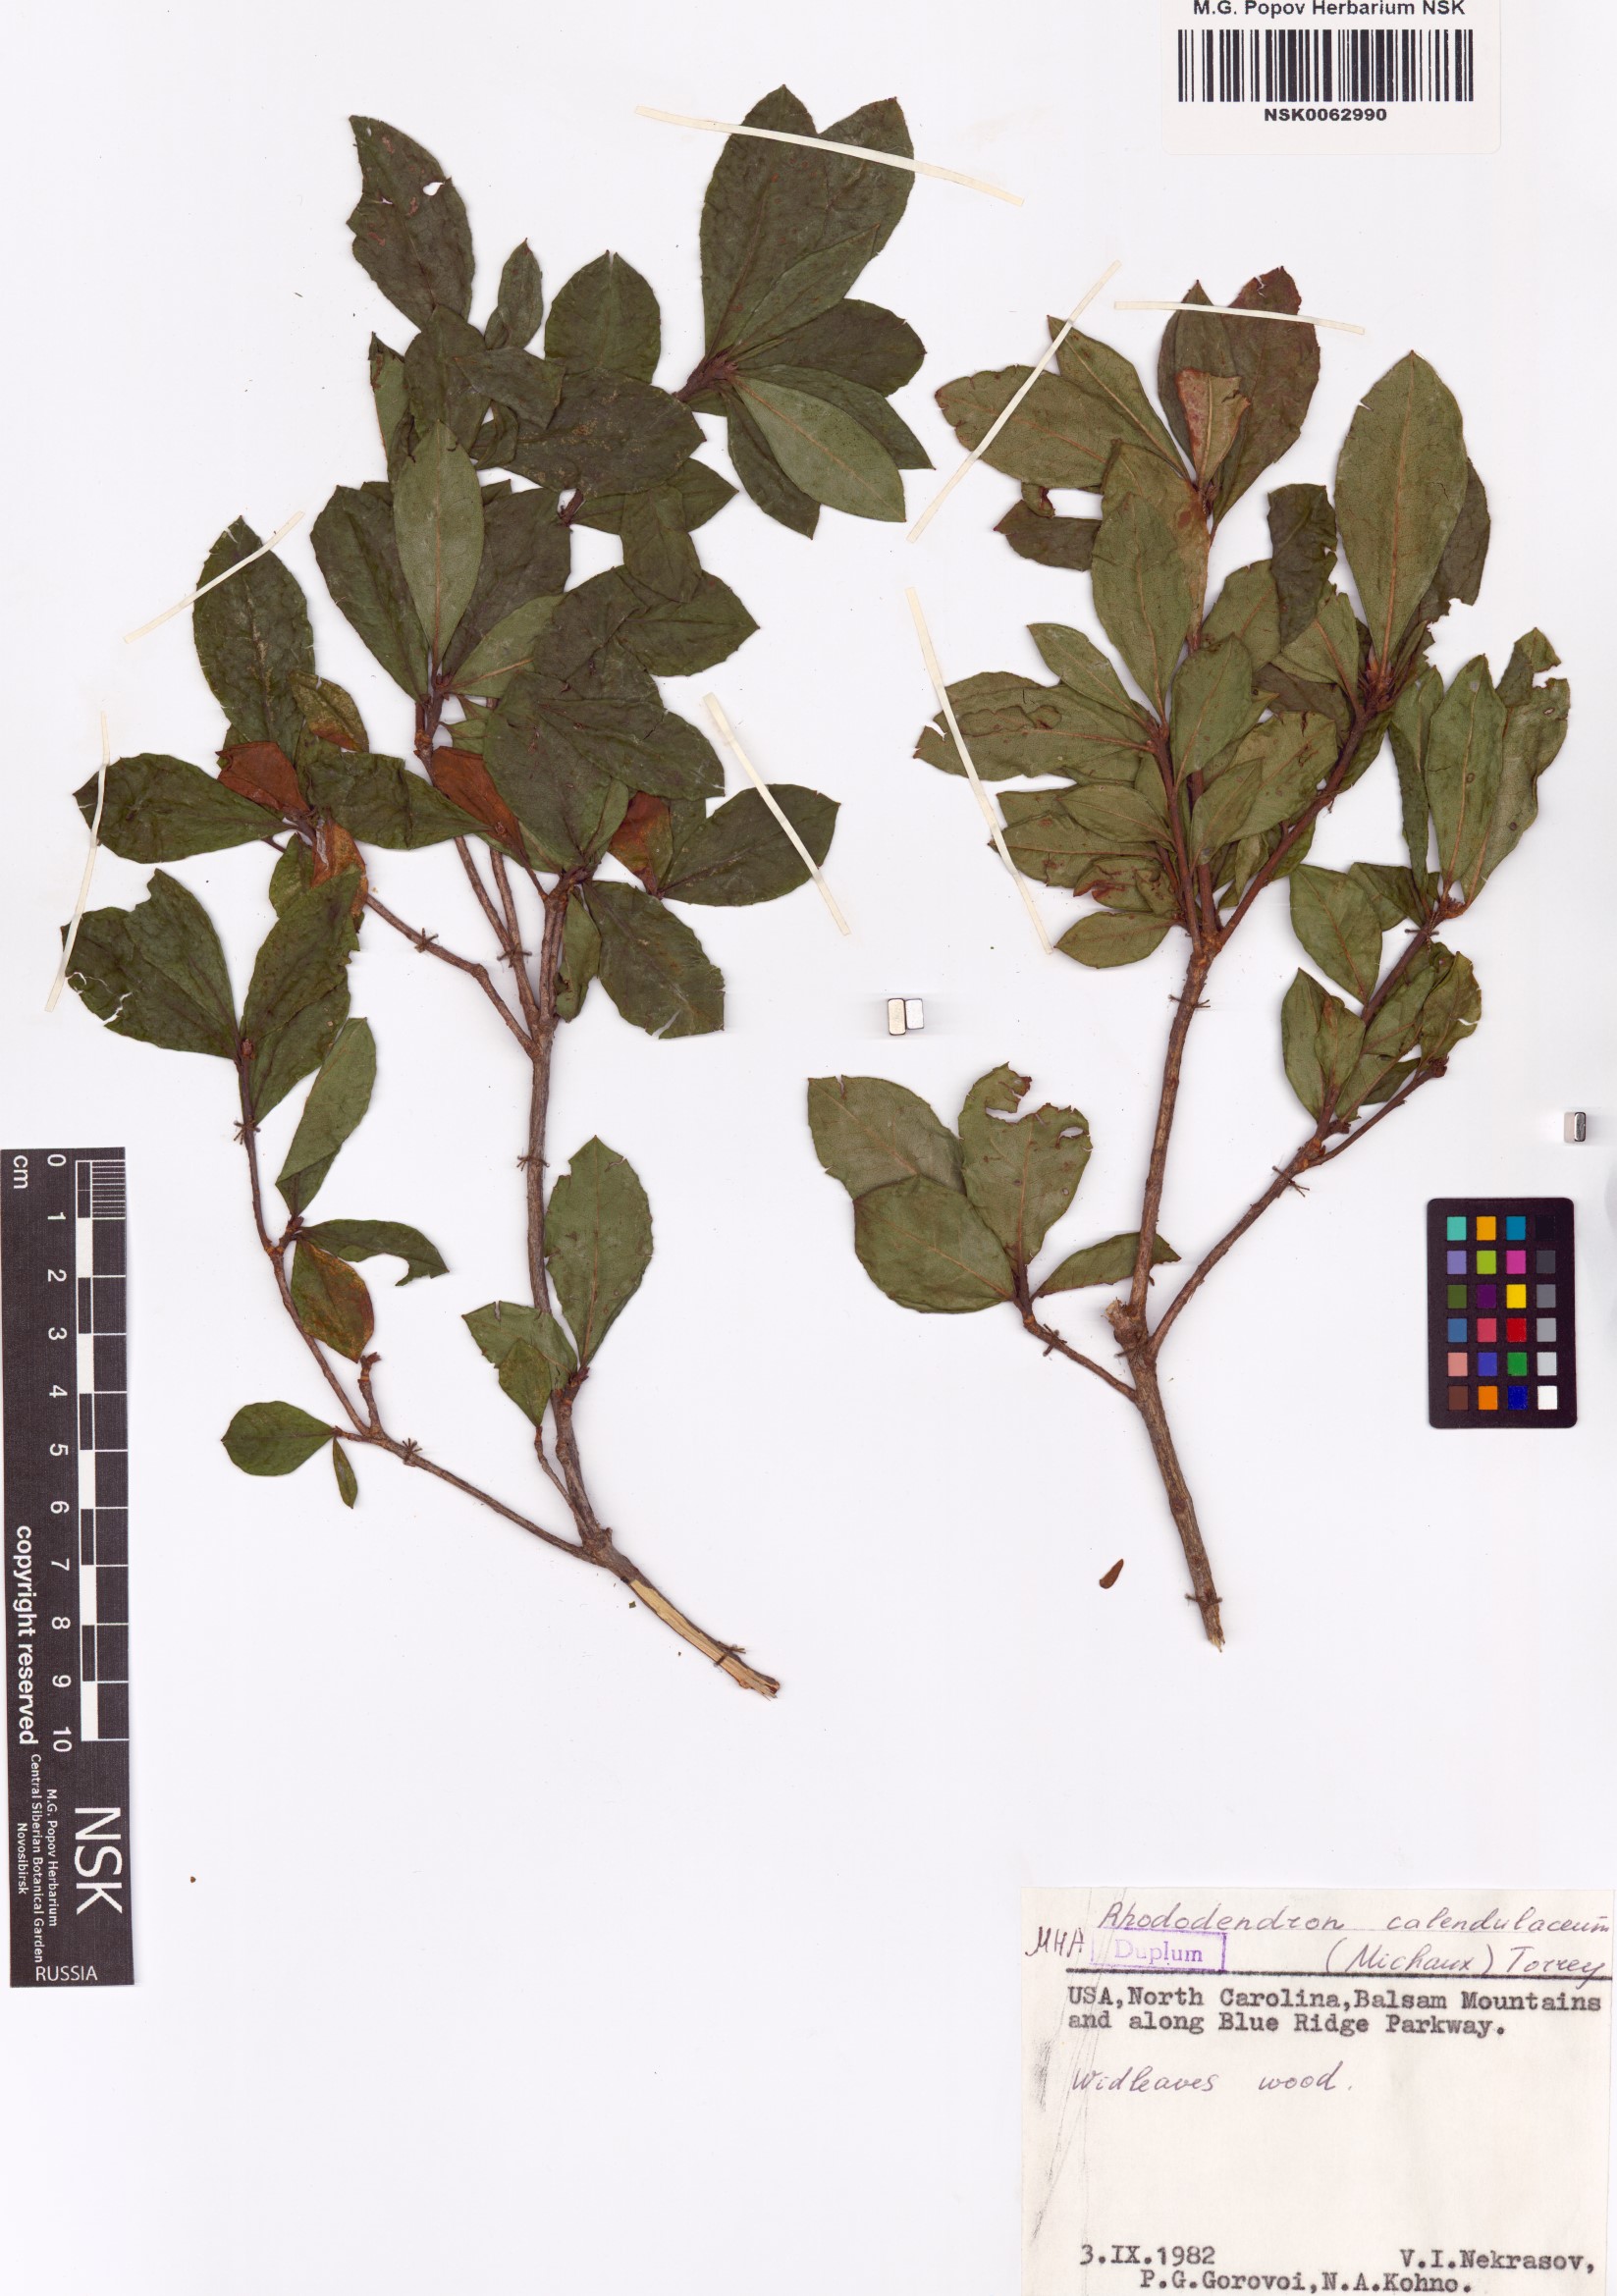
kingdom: Plantae
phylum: Tracheophyta
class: Magnoliopsida
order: Ericales
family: Ericaceae
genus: Rhododendron
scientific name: Rhododendron calendulaceum
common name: Flame azalea
